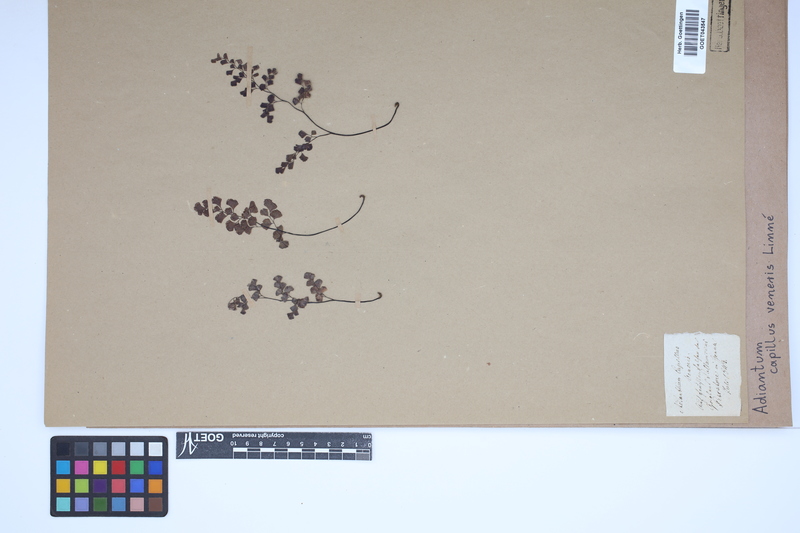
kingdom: Plantae
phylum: Tracheophyta
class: Polypodiopsida
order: Polypodiales
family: Pteridaceae
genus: Adiantum
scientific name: Adiantum capillus-veneris
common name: Maidenhair fern
